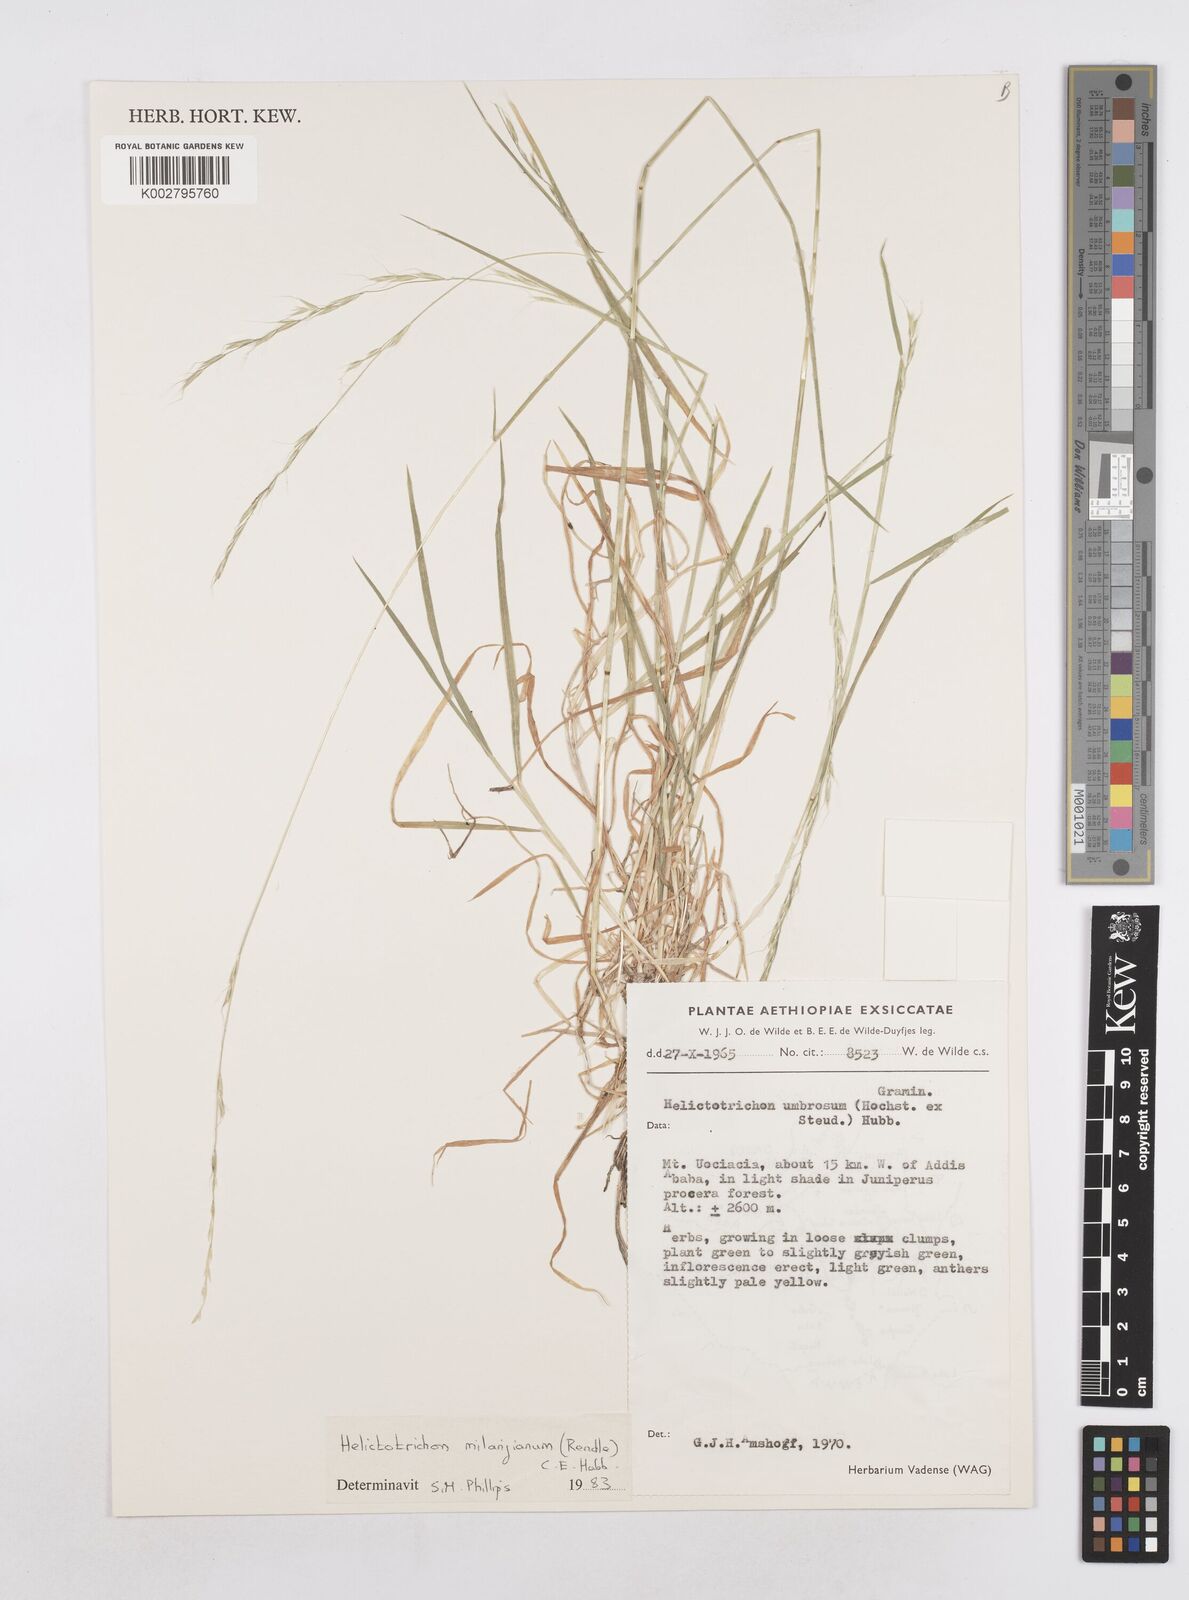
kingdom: Plantae
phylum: Tracheophyta
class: Liliopsida
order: Poales
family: Poaceae
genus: Trisetopsis
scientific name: Trisetopsis milanjiana
